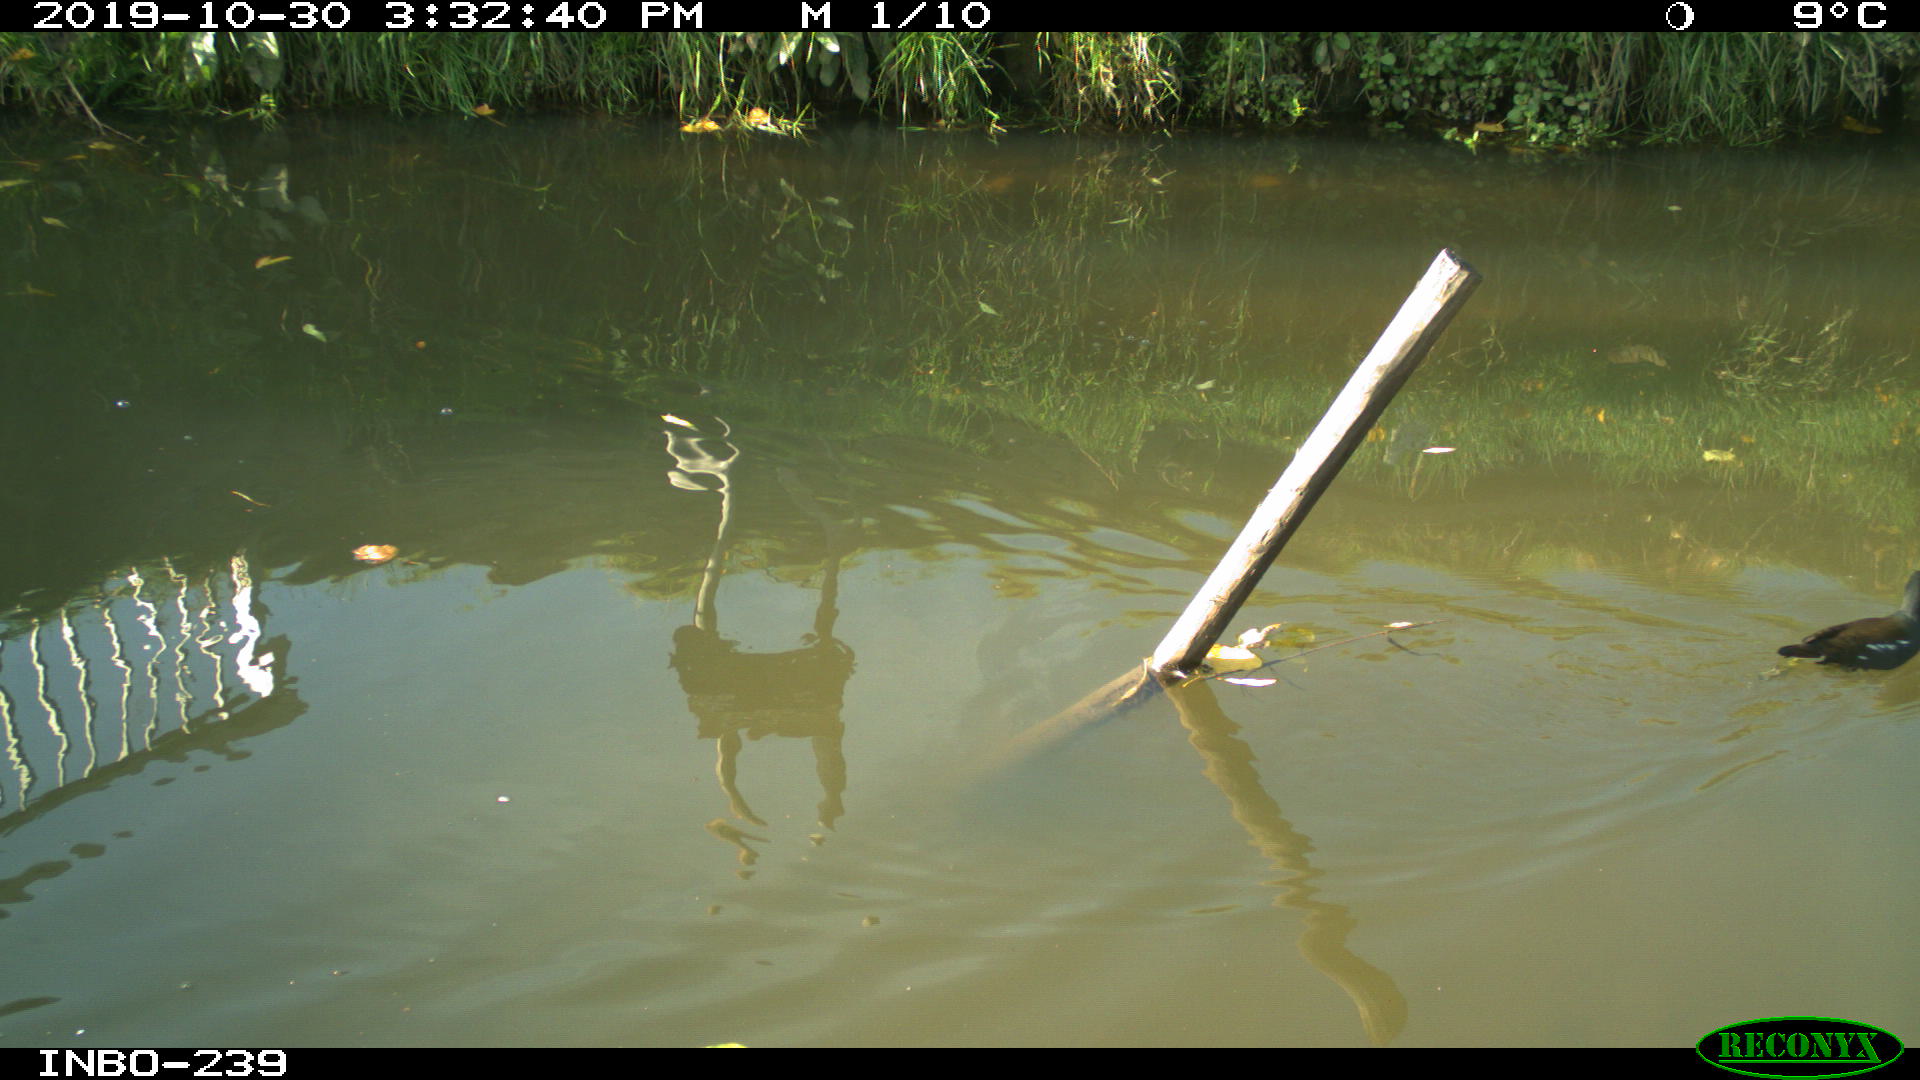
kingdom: Animalia
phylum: Chordata
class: Aves
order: Gruiformes
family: Rallidae
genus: Gallinula
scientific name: Gallinula chloropus
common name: Common moorhen
